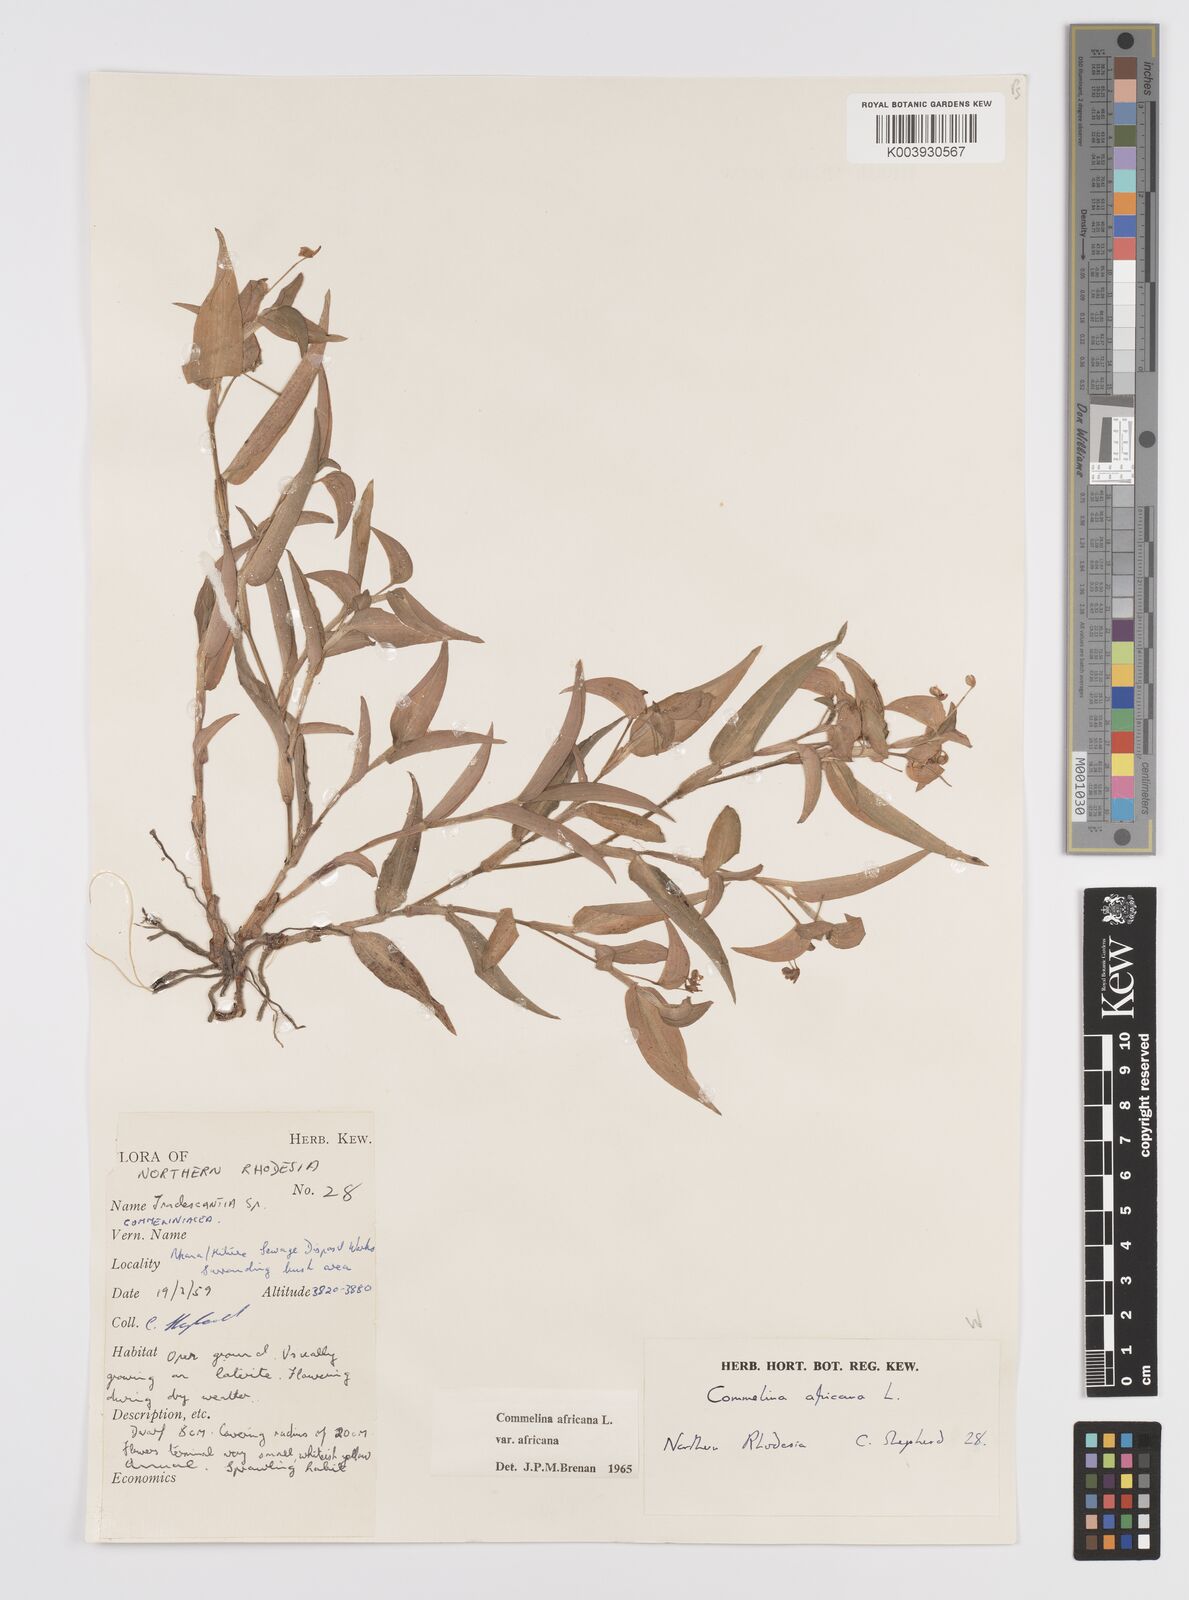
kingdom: Plantae
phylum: Tracheophyta
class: Liliopsida
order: Commelinales
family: Commelinaceae
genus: Commelina
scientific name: Commelina africana
